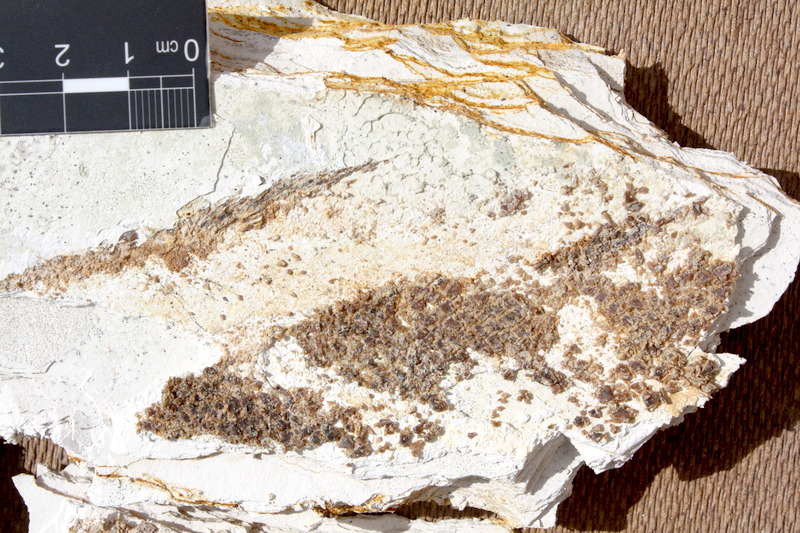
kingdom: Animalia
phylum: Chordata
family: Callipurbeckiidae
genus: Macrosemimimus
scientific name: Macrosemimimus fegerti
